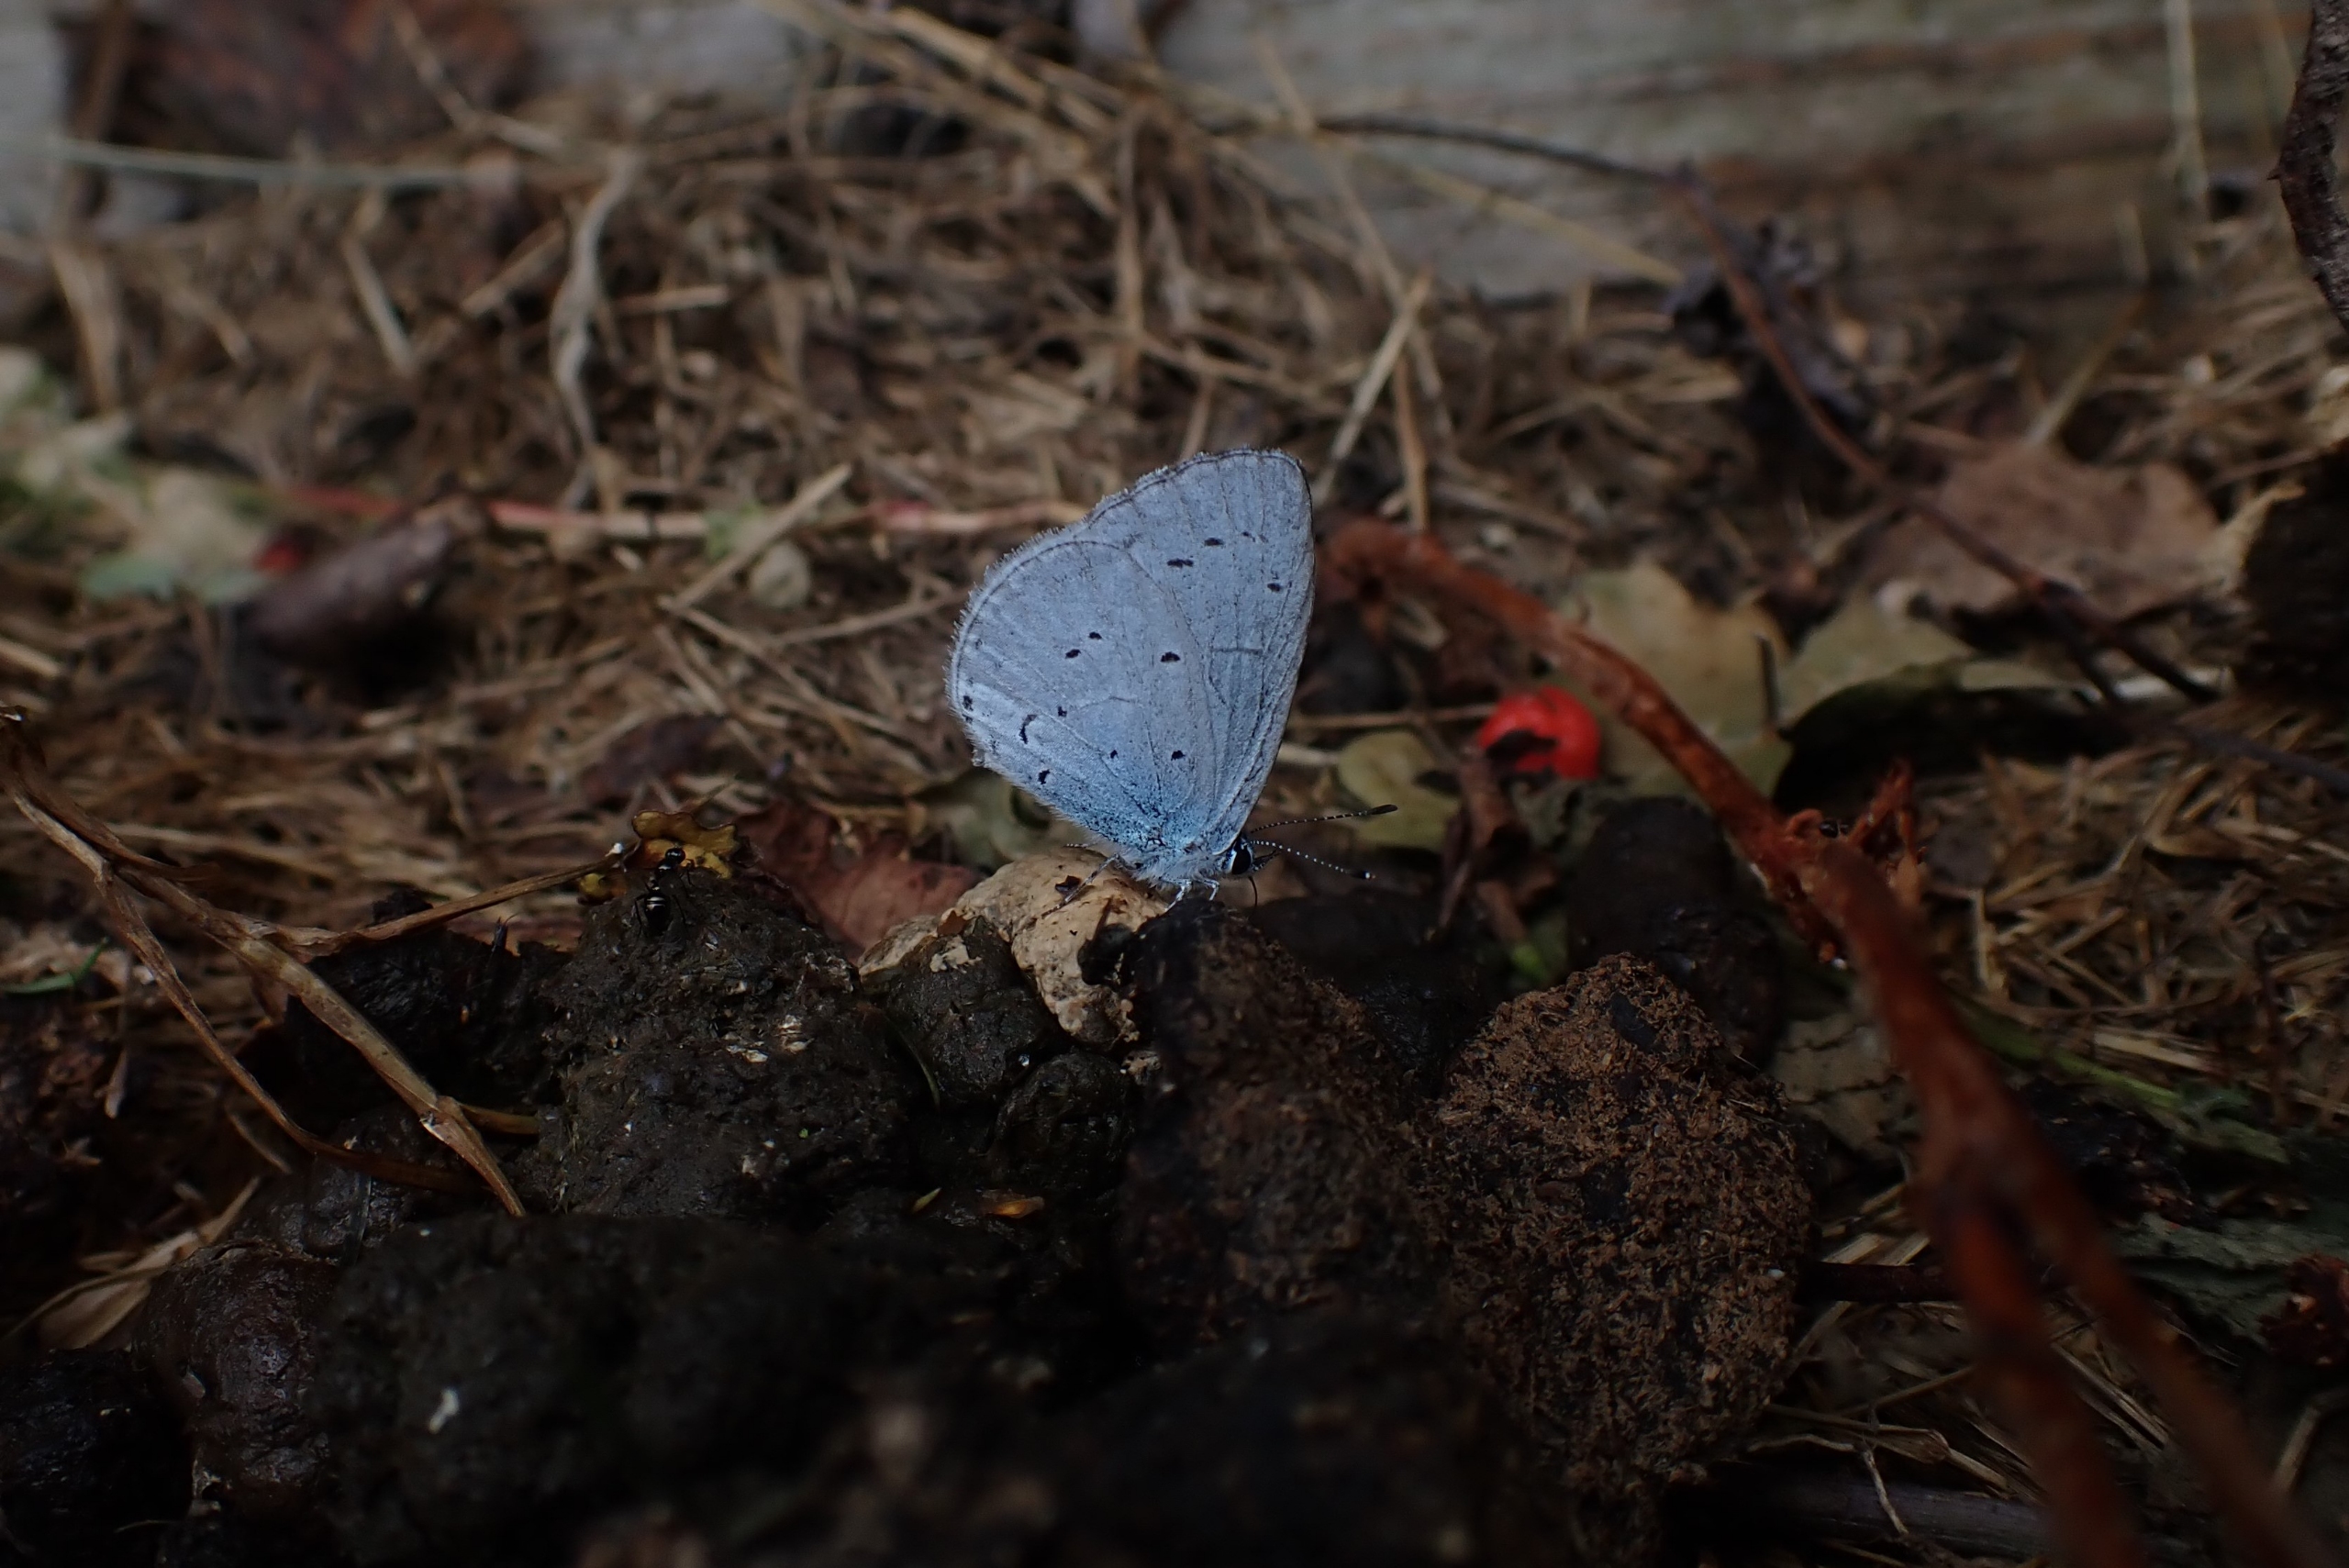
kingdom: Animalia
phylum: Arthropoda
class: Insecta
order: Lepidoptera
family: Lycaenidae
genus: Celastrina
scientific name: Celastrina argiolus
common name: Skovblåfugl
